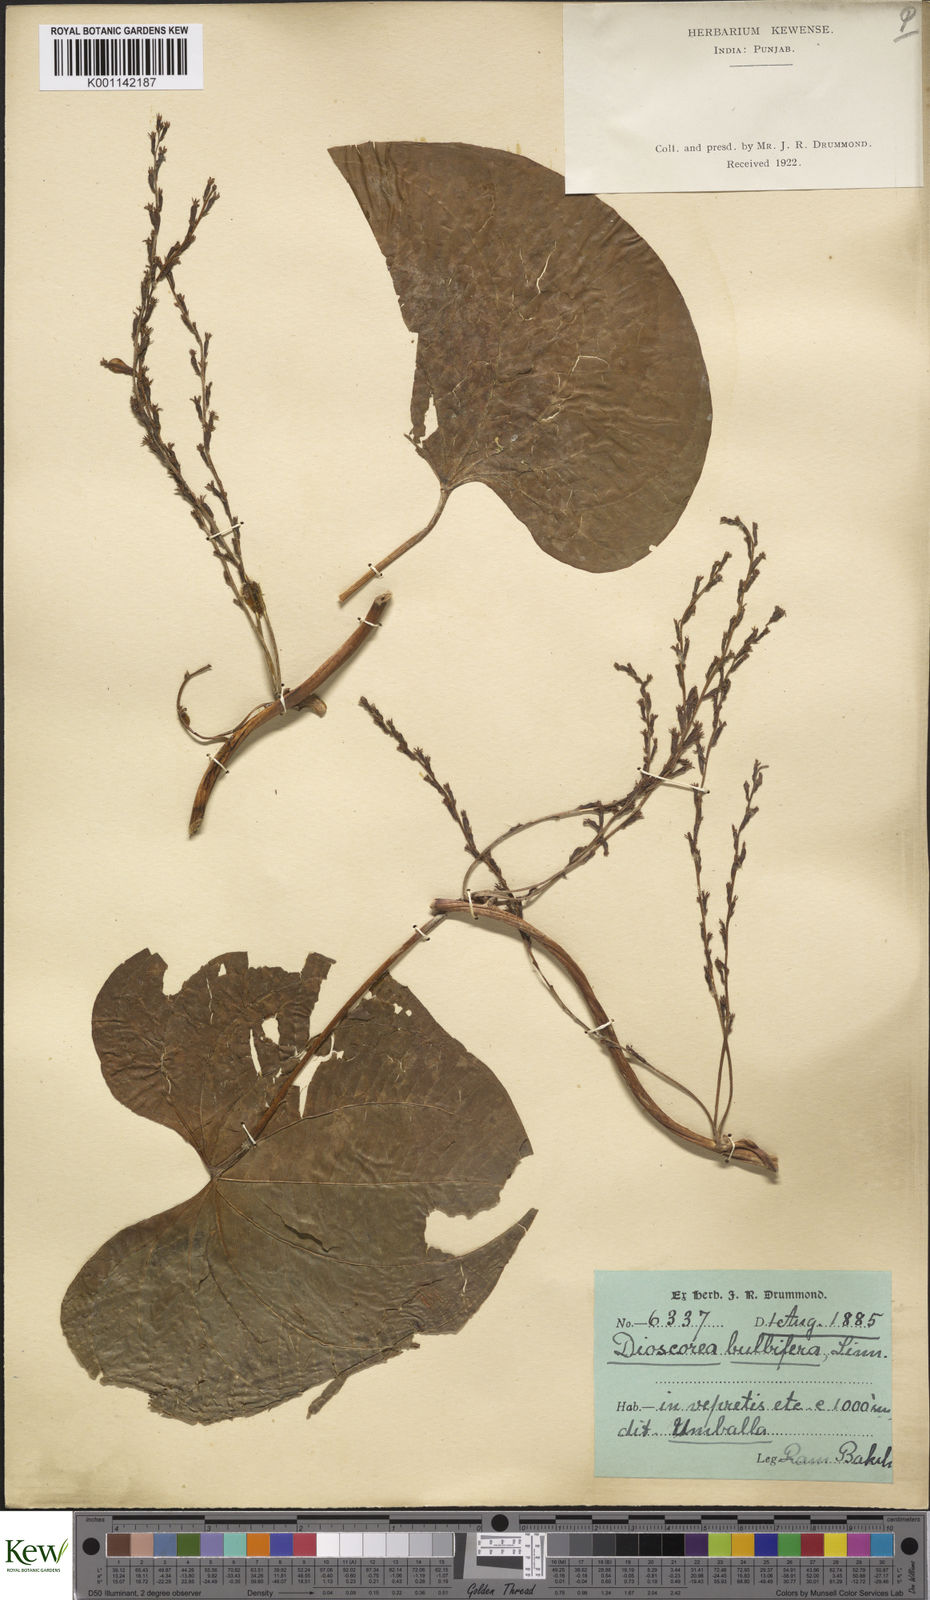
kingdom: Plantae
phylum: Tracheophyta
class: Liliopsida
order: Dioscoreales
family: Dioscoreaceae
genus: Dioscorea
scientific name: Dioscorea bulbifera
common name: Air yam
